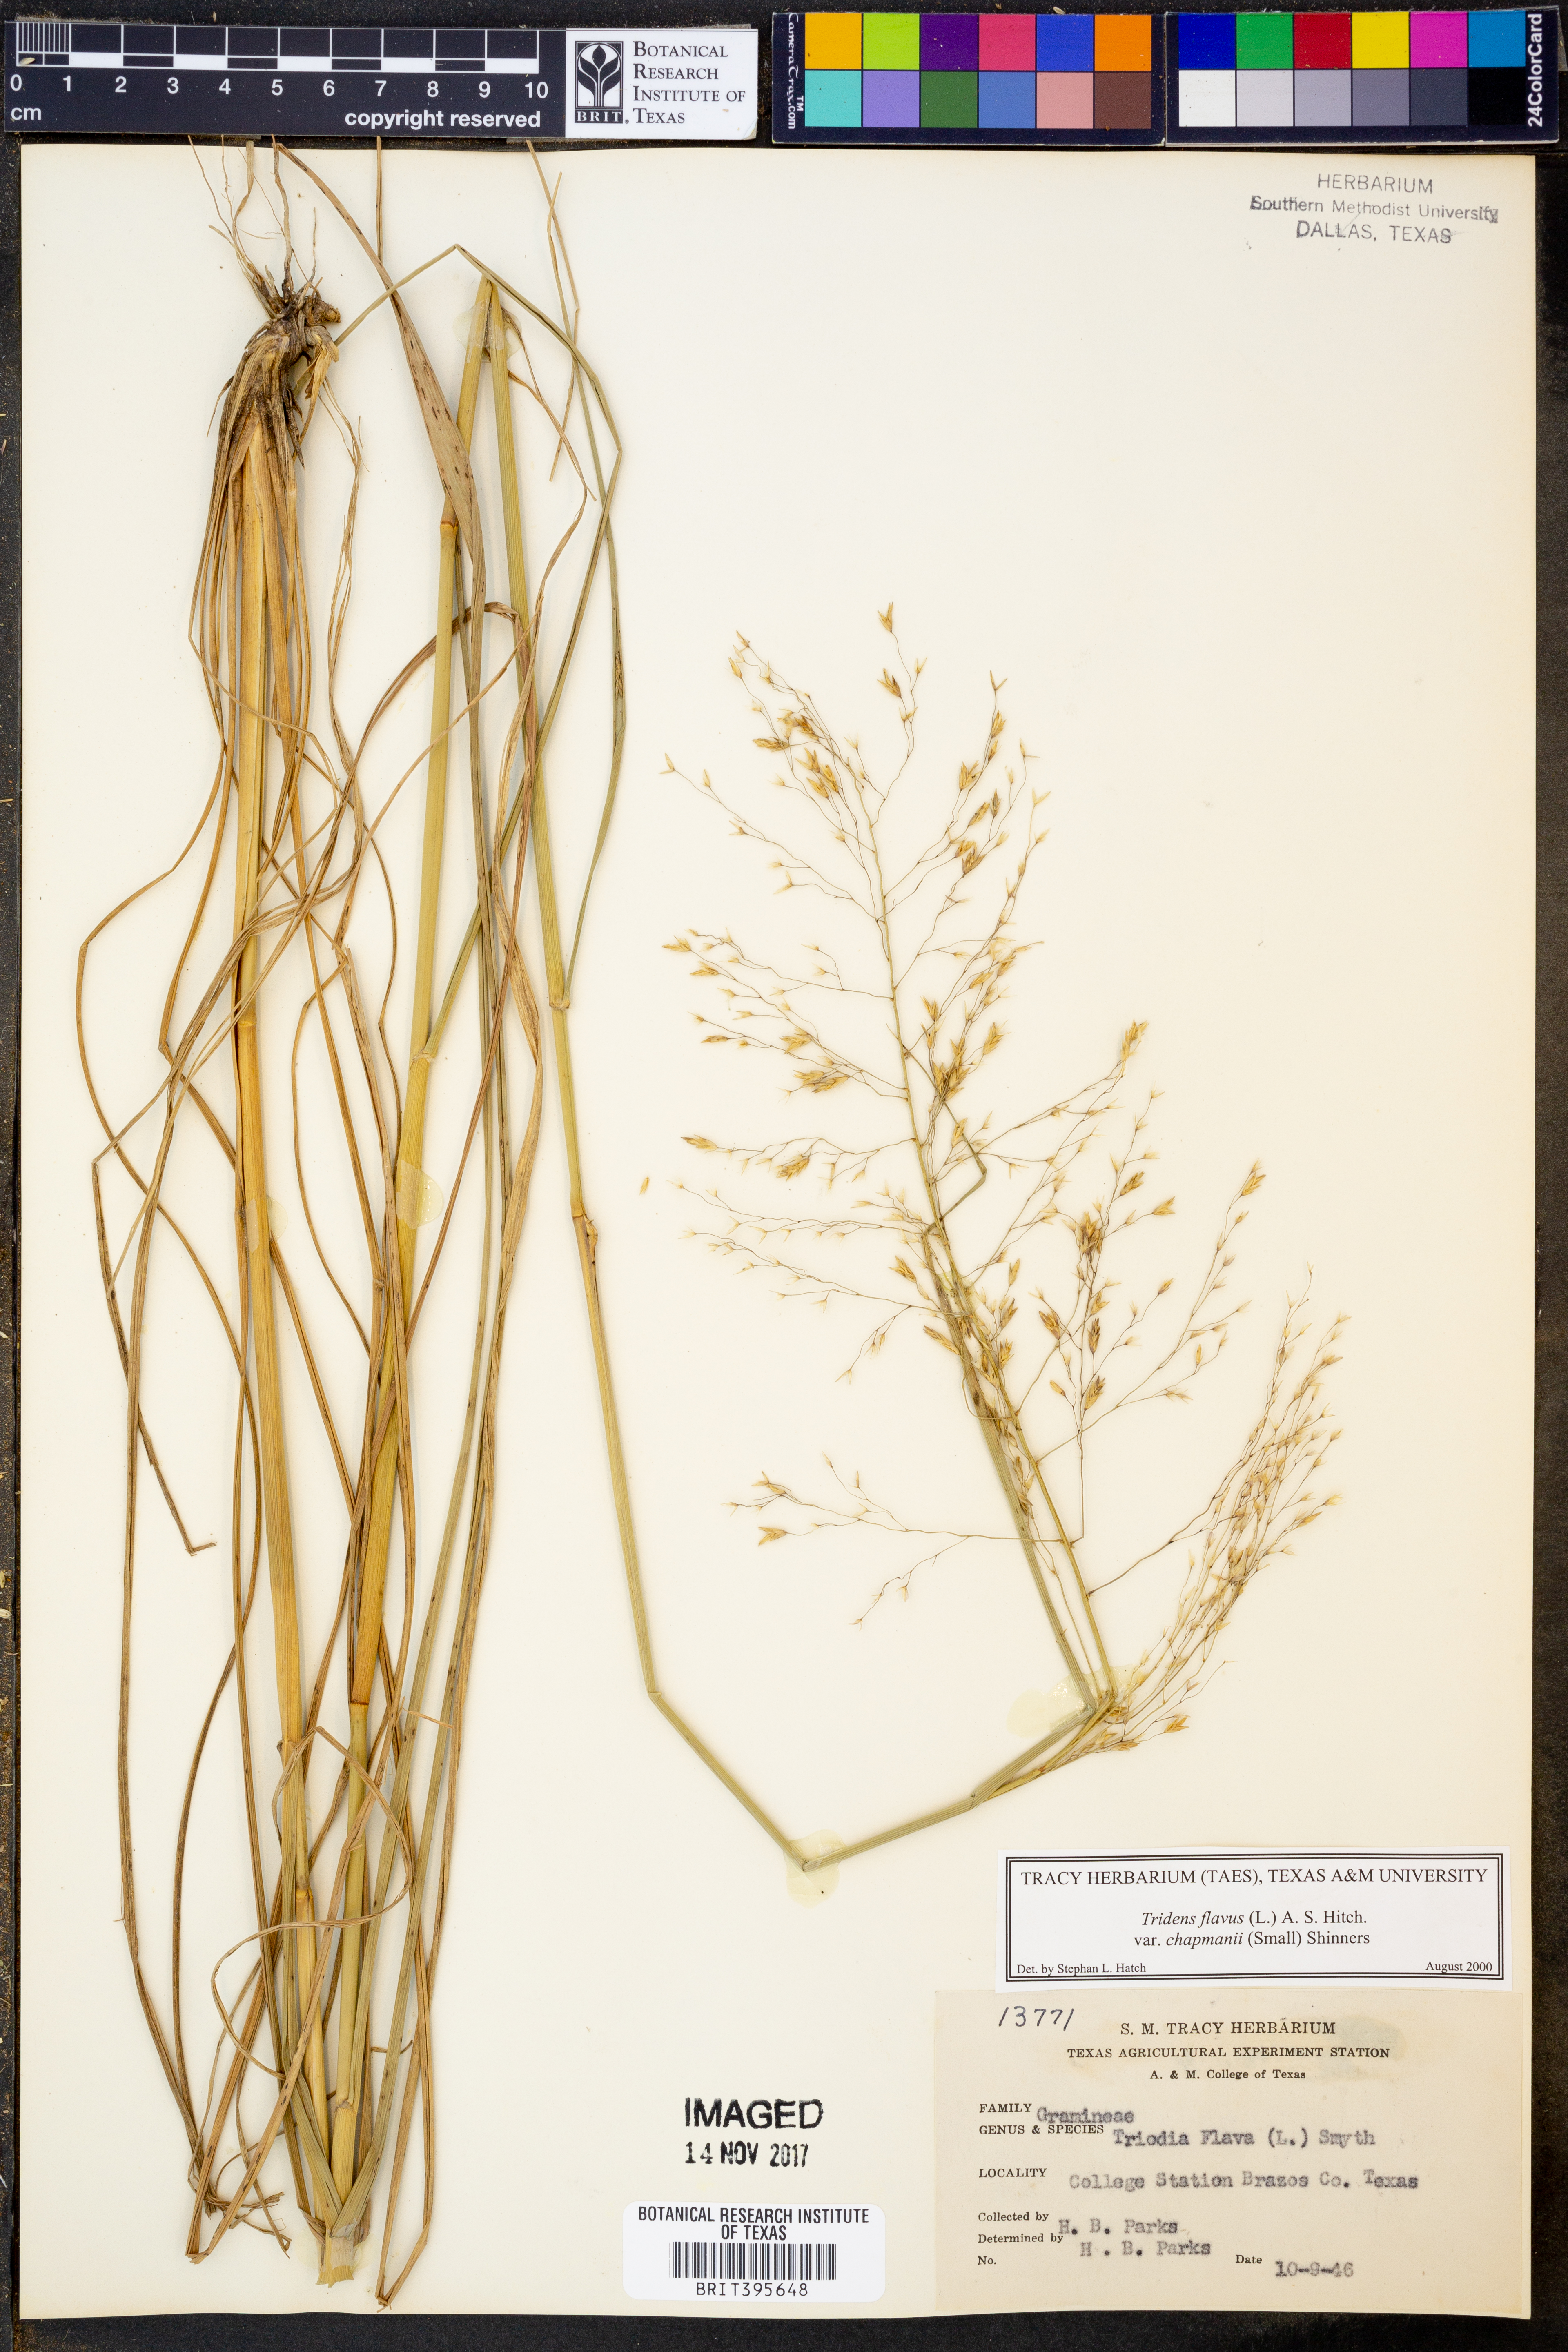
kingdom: Plantae
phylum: Tracheophyta
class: Liliopsida
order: Poales
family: Poaceae
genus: Tridens
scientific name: Tridens chapmanii
